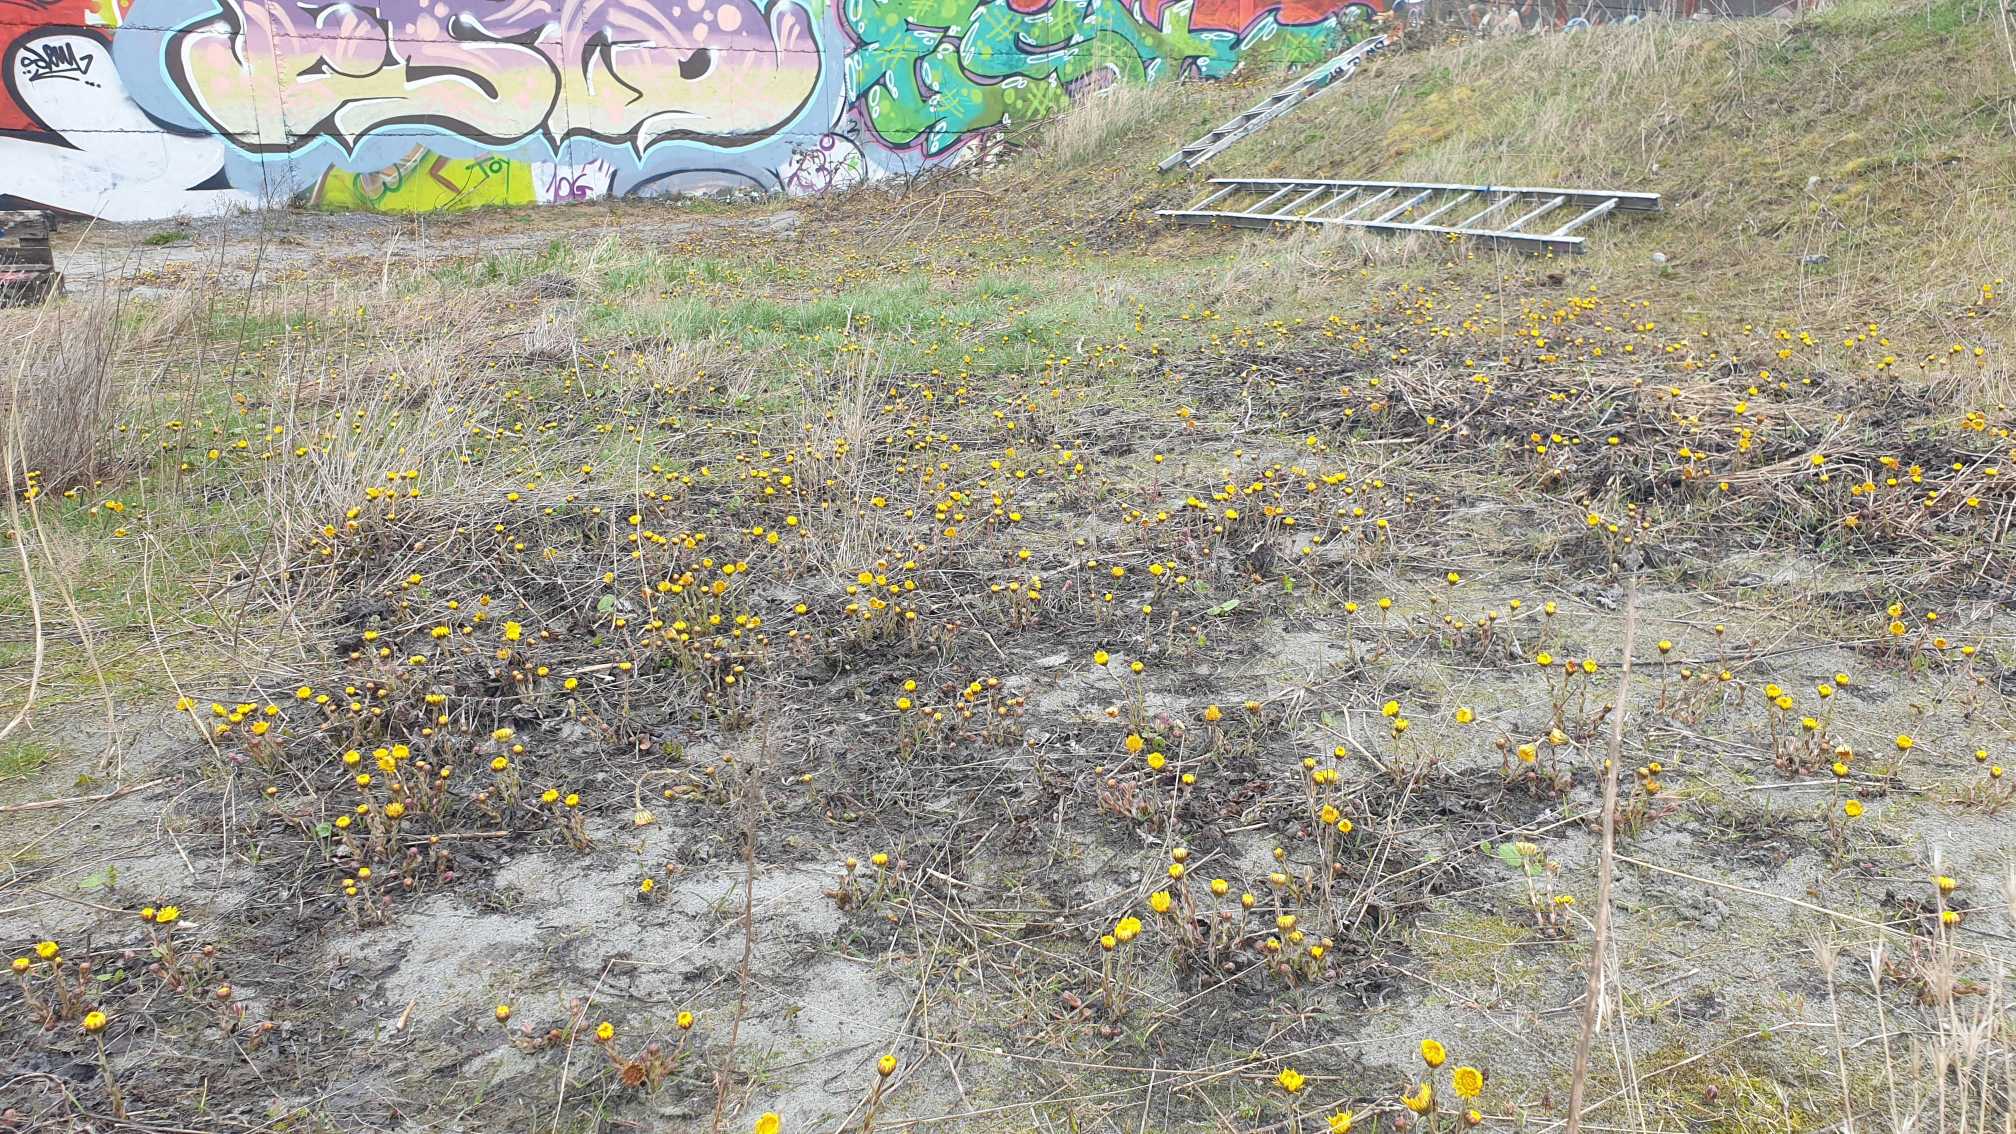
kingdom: Plantae
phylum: Tracheophyta
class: Magnoliopsida
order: Asterales
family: Asteraceae
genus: Tussilago
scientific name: Tussilago farfara
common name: Følfod
